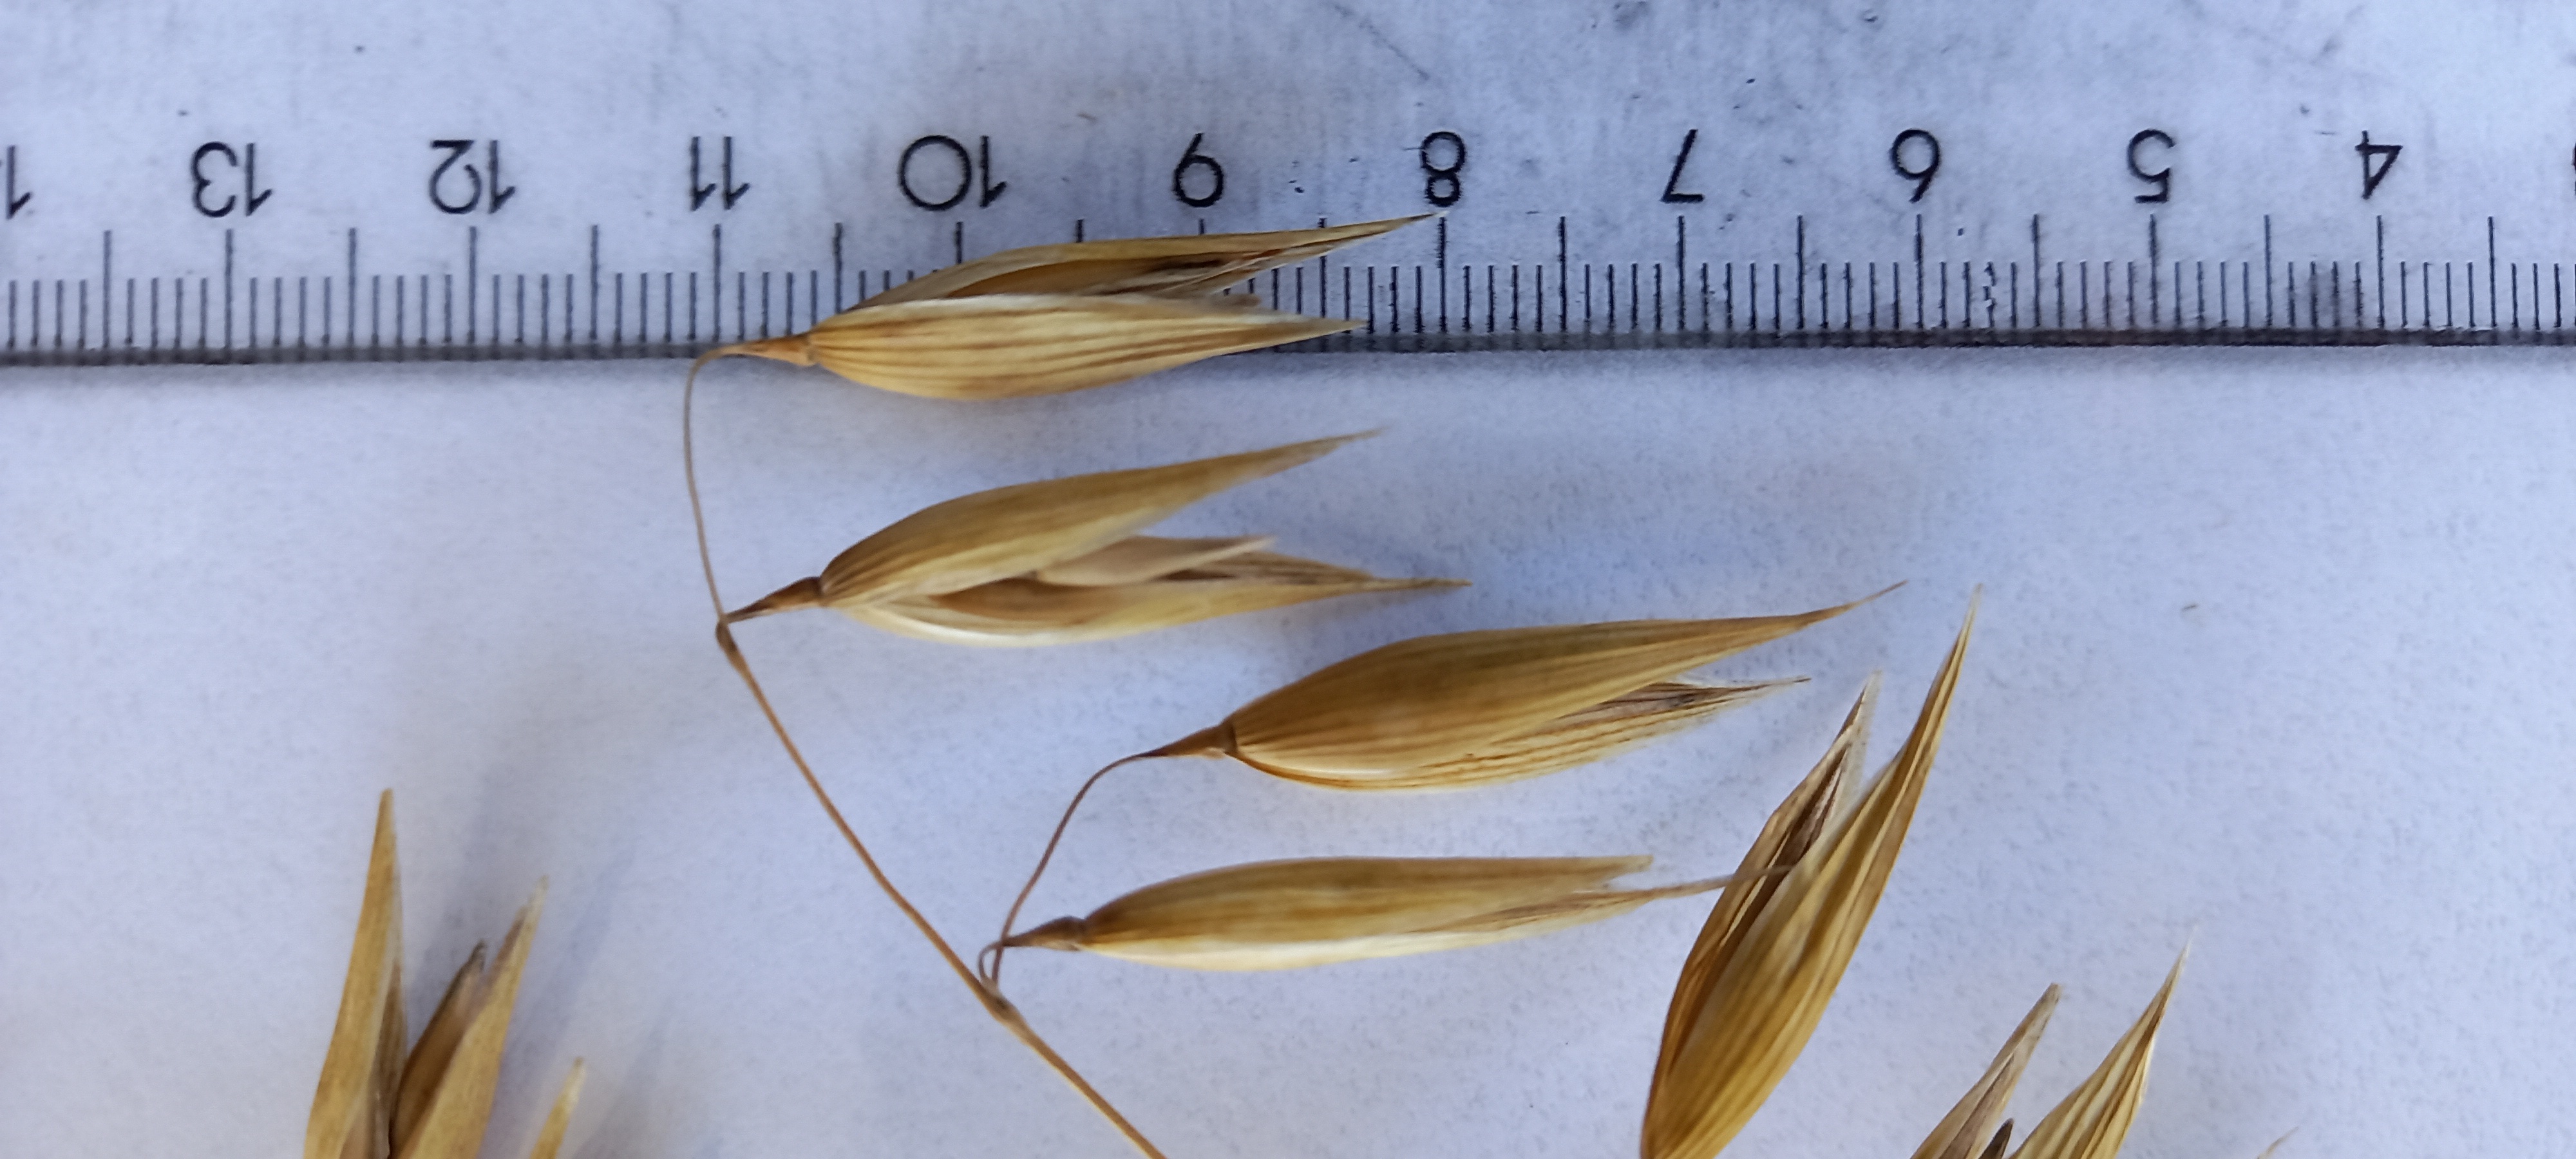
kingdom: Plantae
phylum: Tracheophyta
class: Liliopsida
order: Poales
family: Poaceae
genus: Avena
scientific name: Avena sativa
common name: Oat
